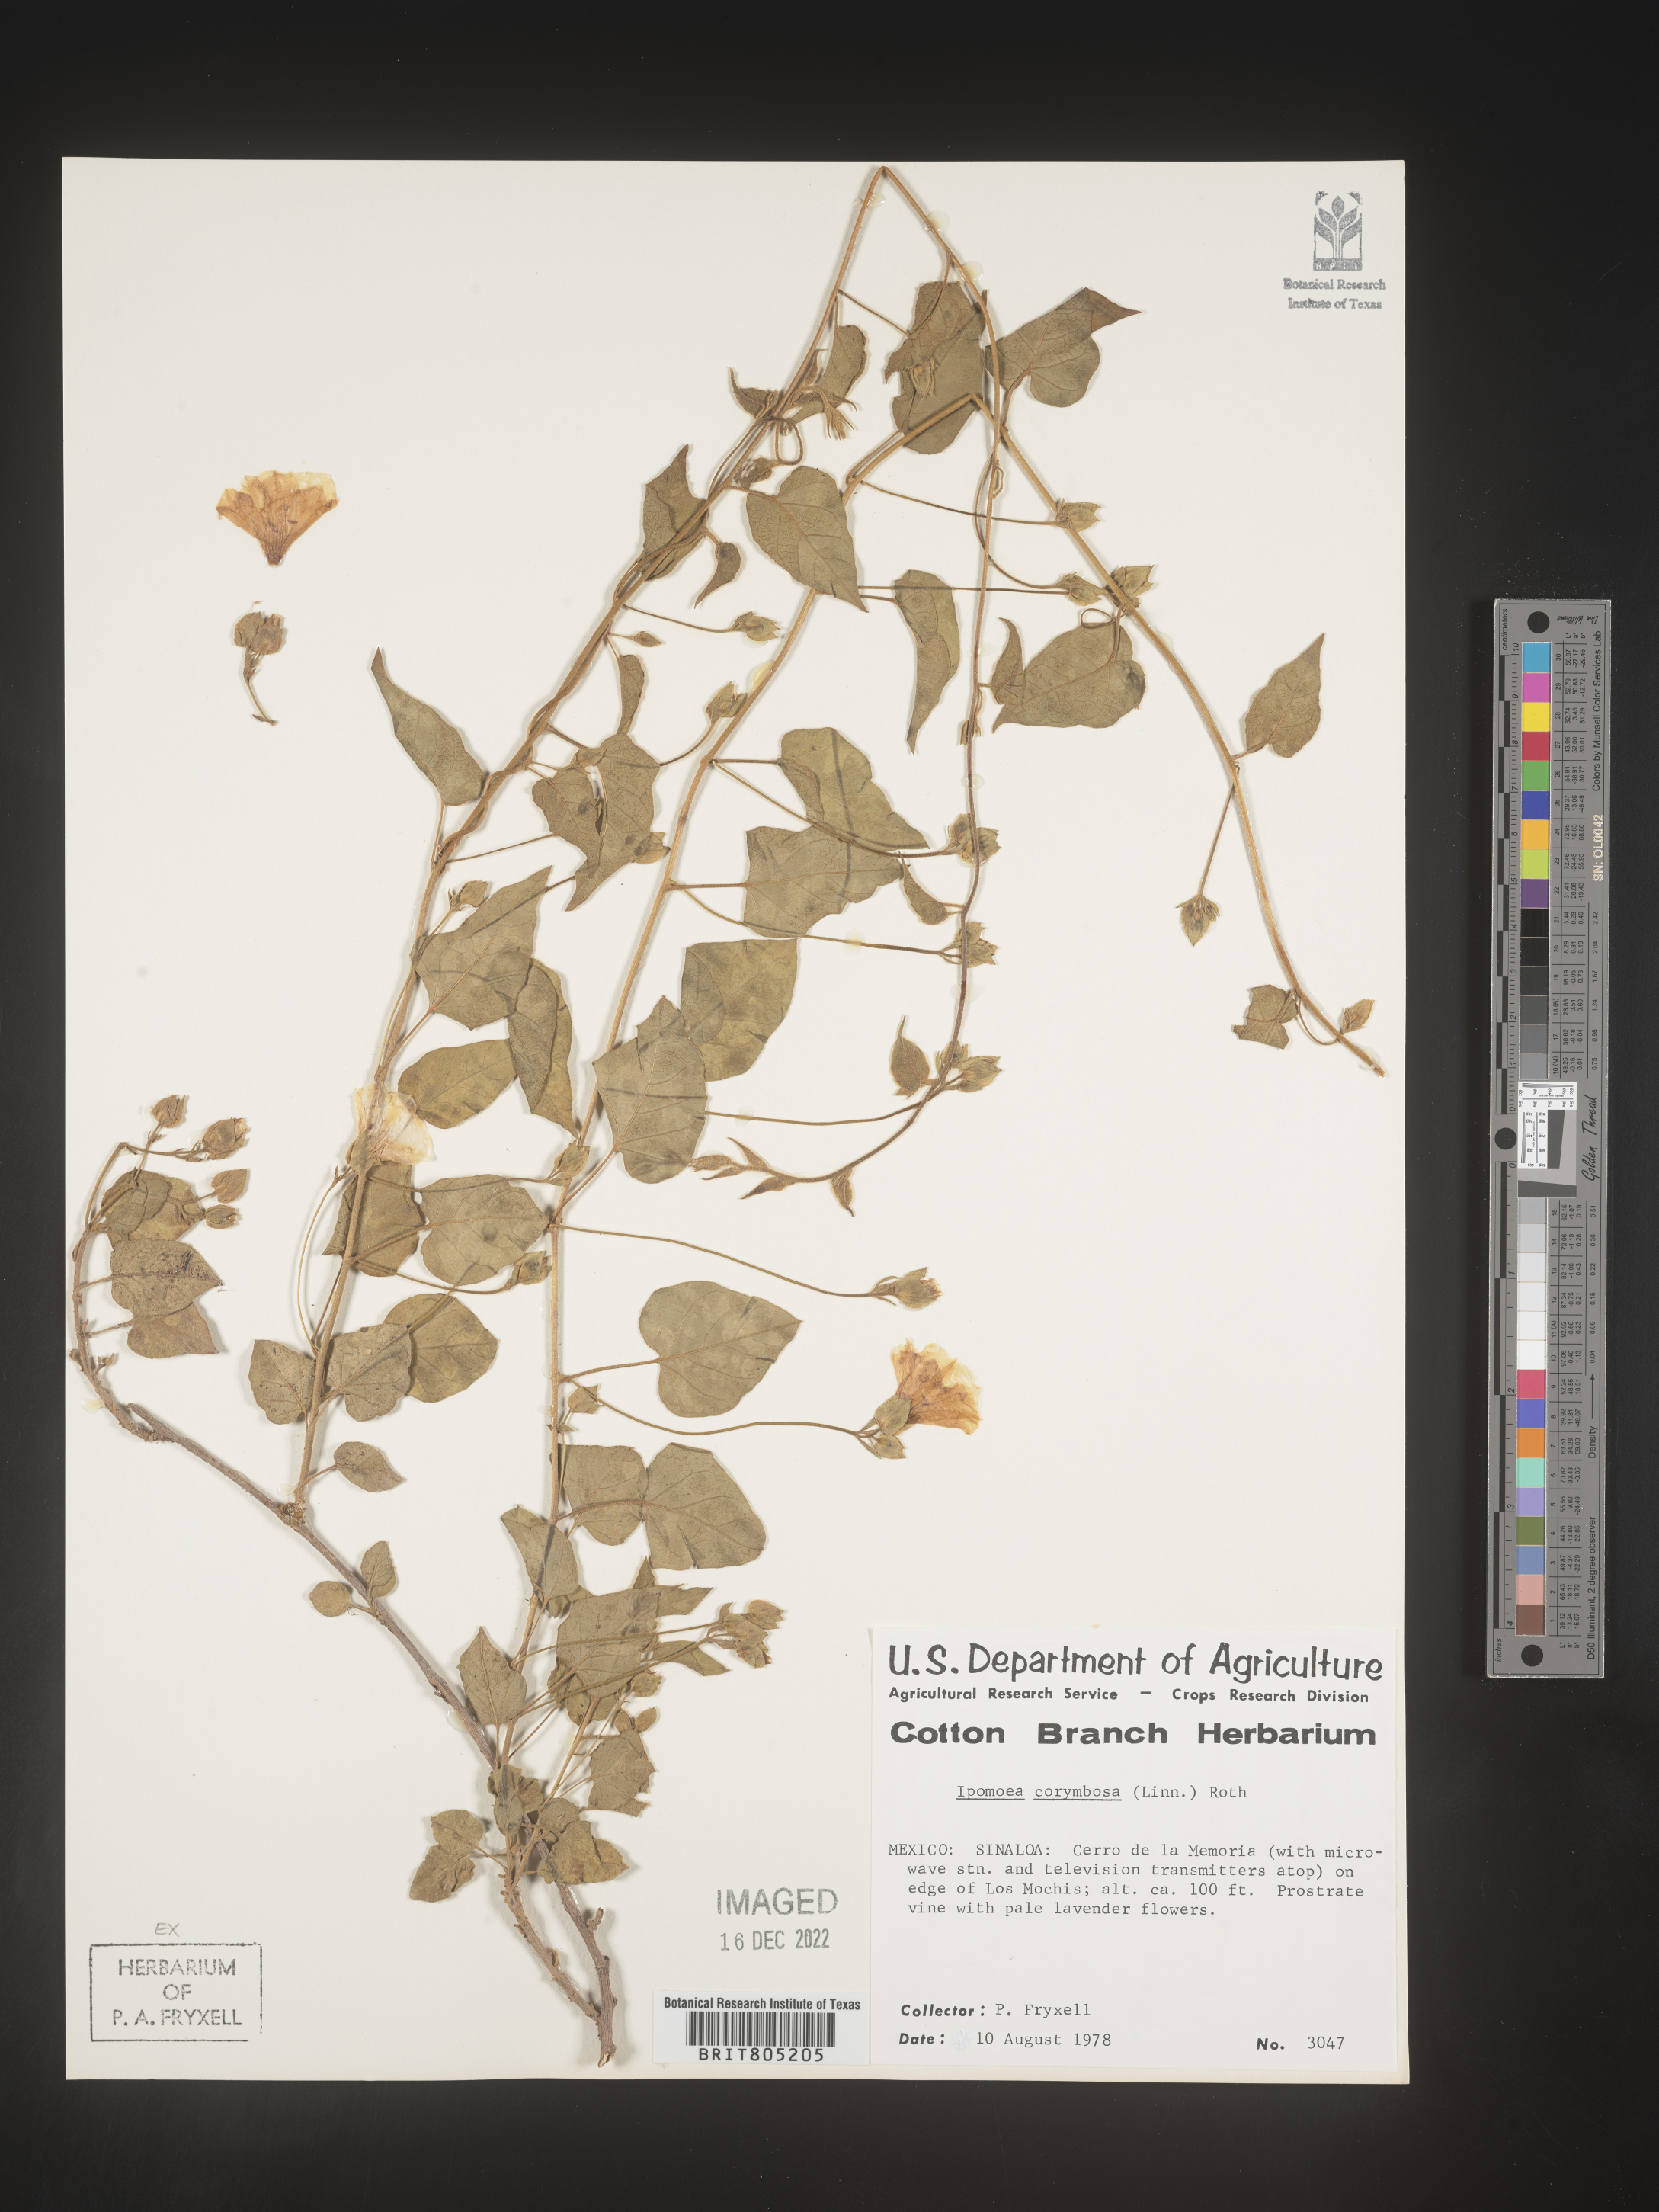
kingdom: Plantae
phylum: Tracheophyta
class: Magnoliopsida
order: Solanales
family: Convolvulaceae
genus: Ipomoea
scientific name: Ipomoea
